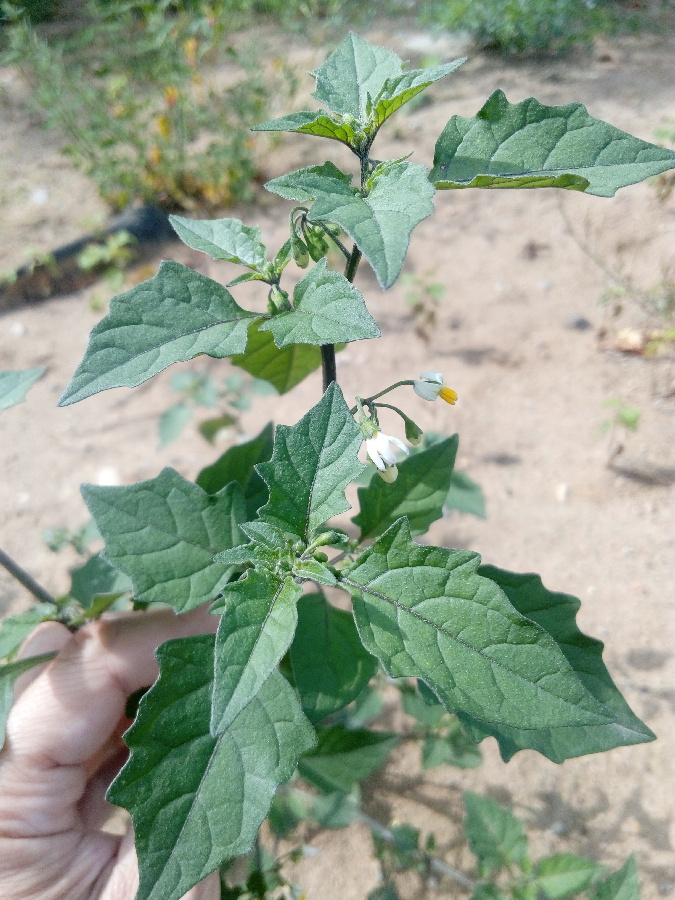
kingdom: Plantae
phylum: Tracheophyta
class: Magnoliopsida
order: Solanales
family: Solanaceae
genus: Solanum
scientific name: Solanum nigrum
